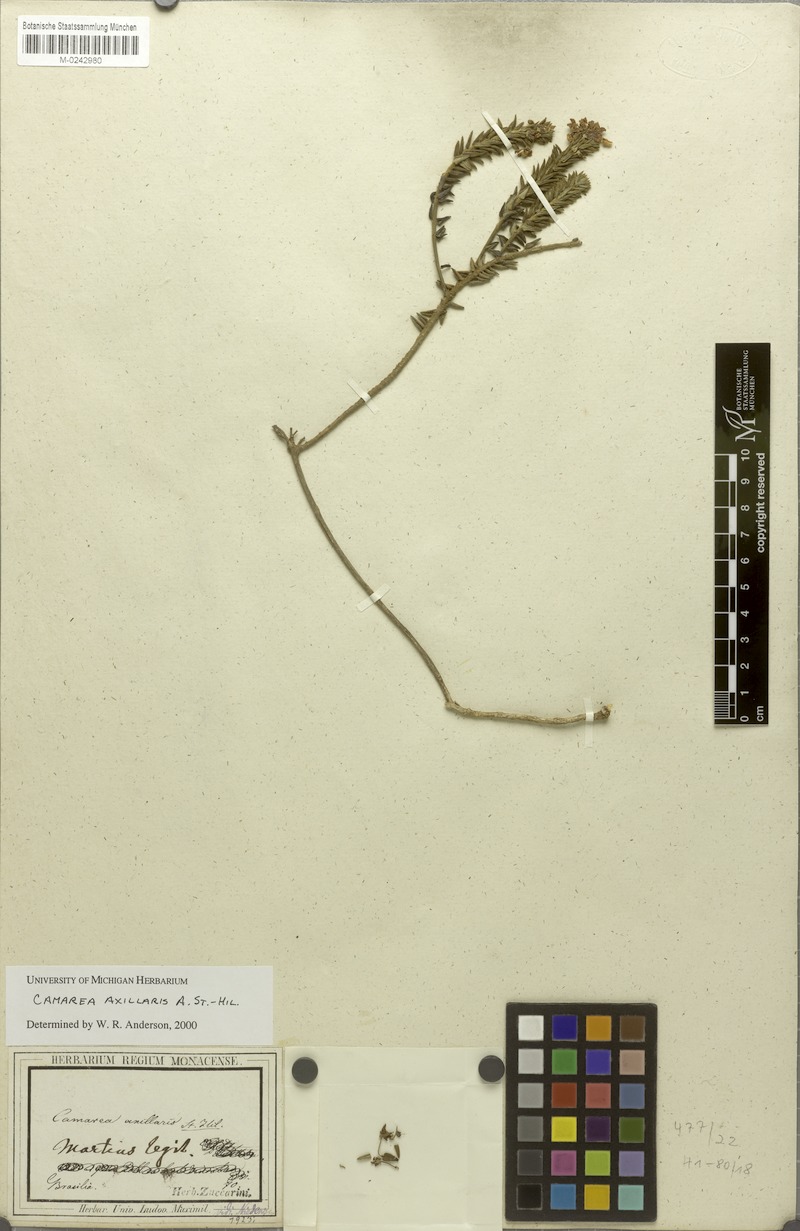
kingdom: Plantae
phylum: Tracheophyta
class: Magnoliopsida
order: Malpighiales
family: Malpighiaceae
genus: Camarea
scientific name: Camarea axillaris
